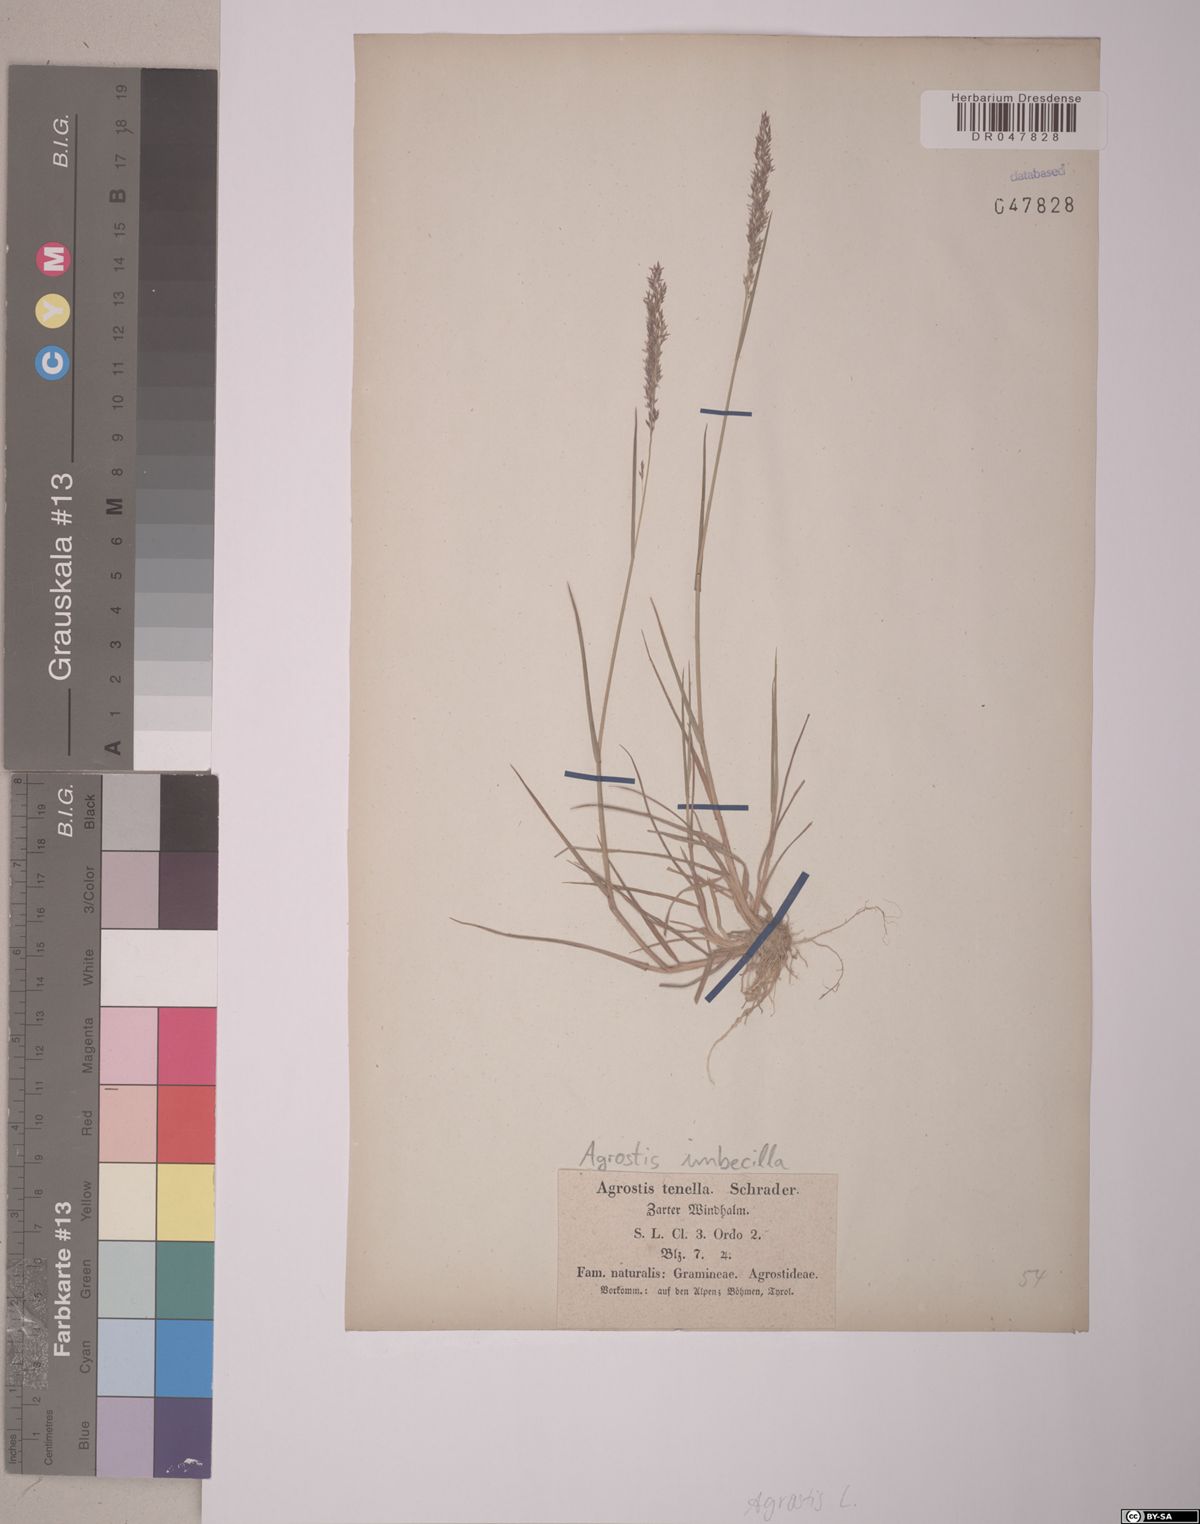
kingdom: Plantae
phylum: Tracheophyta
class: Liliopsida
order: Poales
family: Poaceae
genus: Agrostis
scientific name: Agrostis imbecilla
